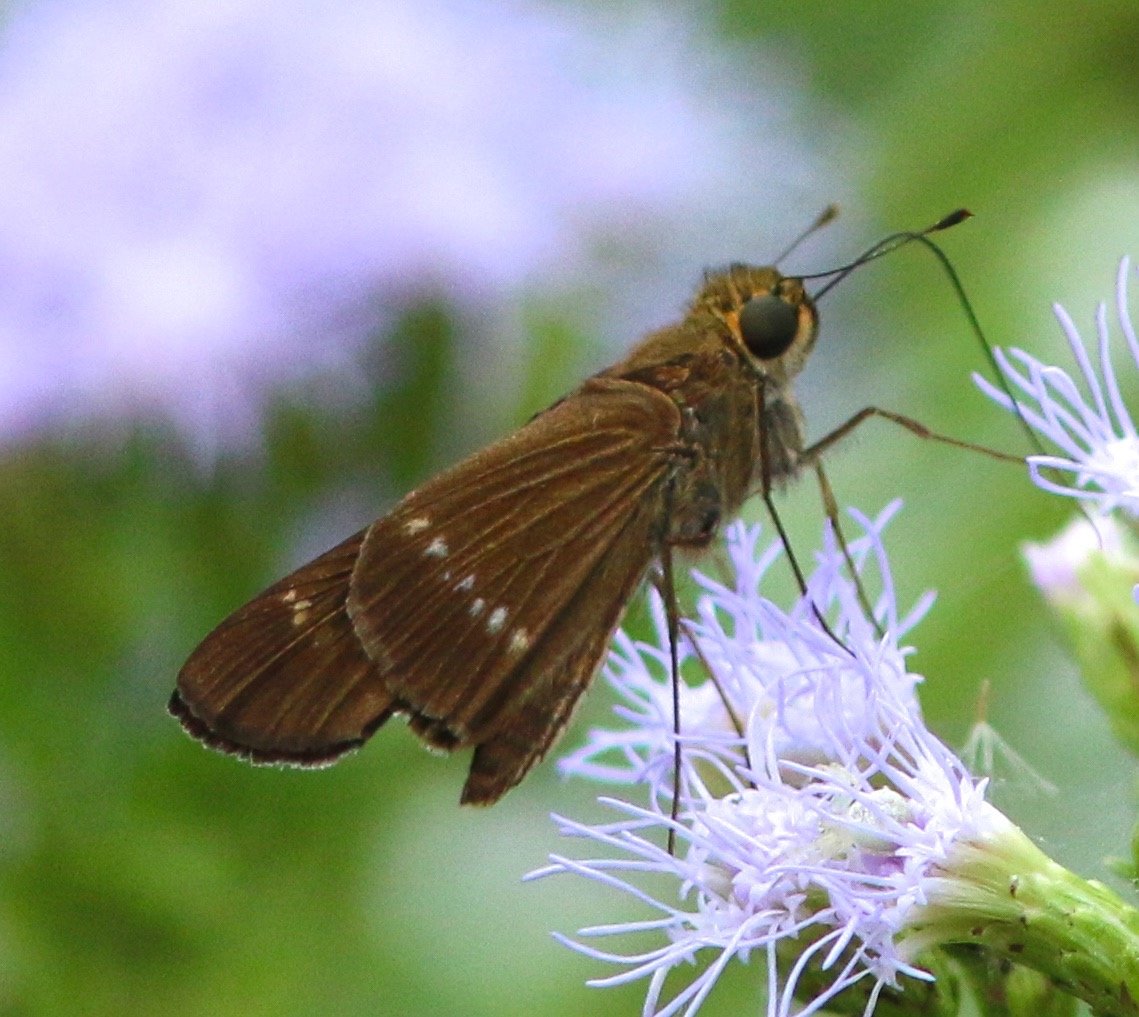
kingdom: Animalia
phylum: Arthropoda
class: Insecta
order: Lepidoptera
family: Hesperiidae
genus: Turesis
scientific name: Turesis lucas
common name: Purple-washed Skipper
